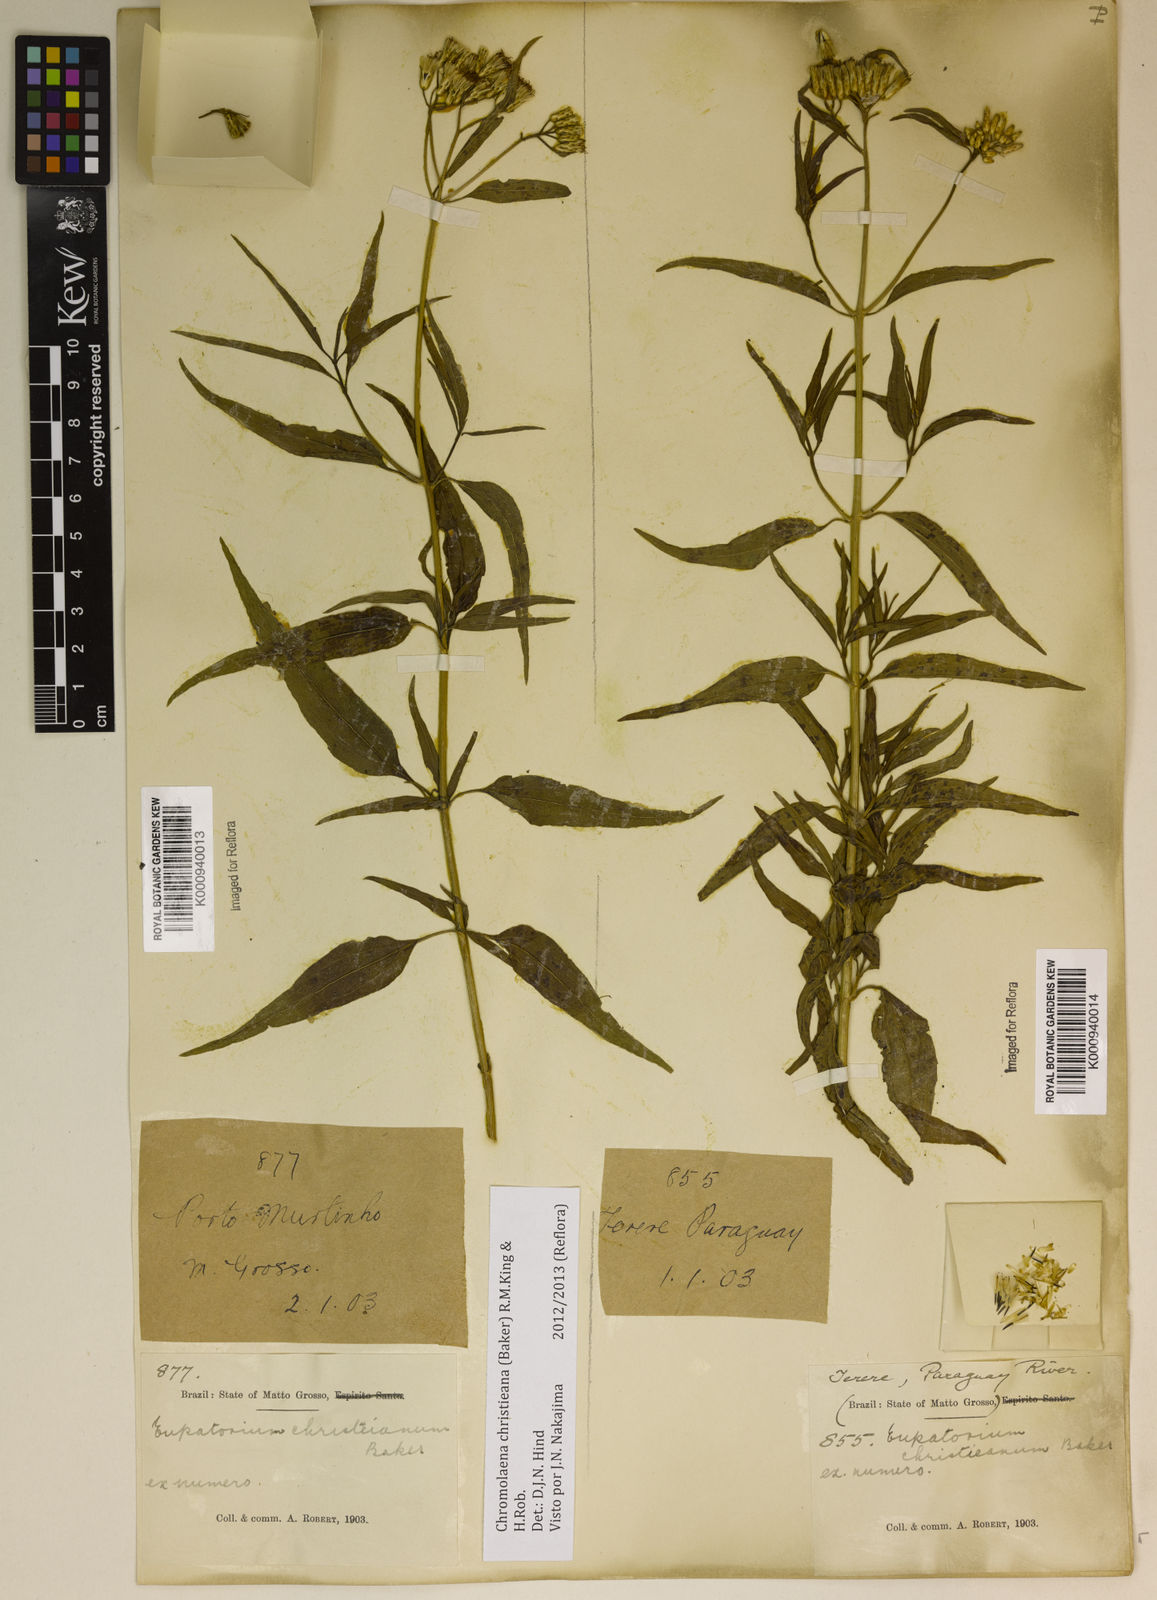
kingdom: Plantae
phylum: Tracheophyta
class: Magnoliopsida
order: Asterales
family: Asteraceae
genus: Chromolaena
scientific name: Chromolaena christieana
